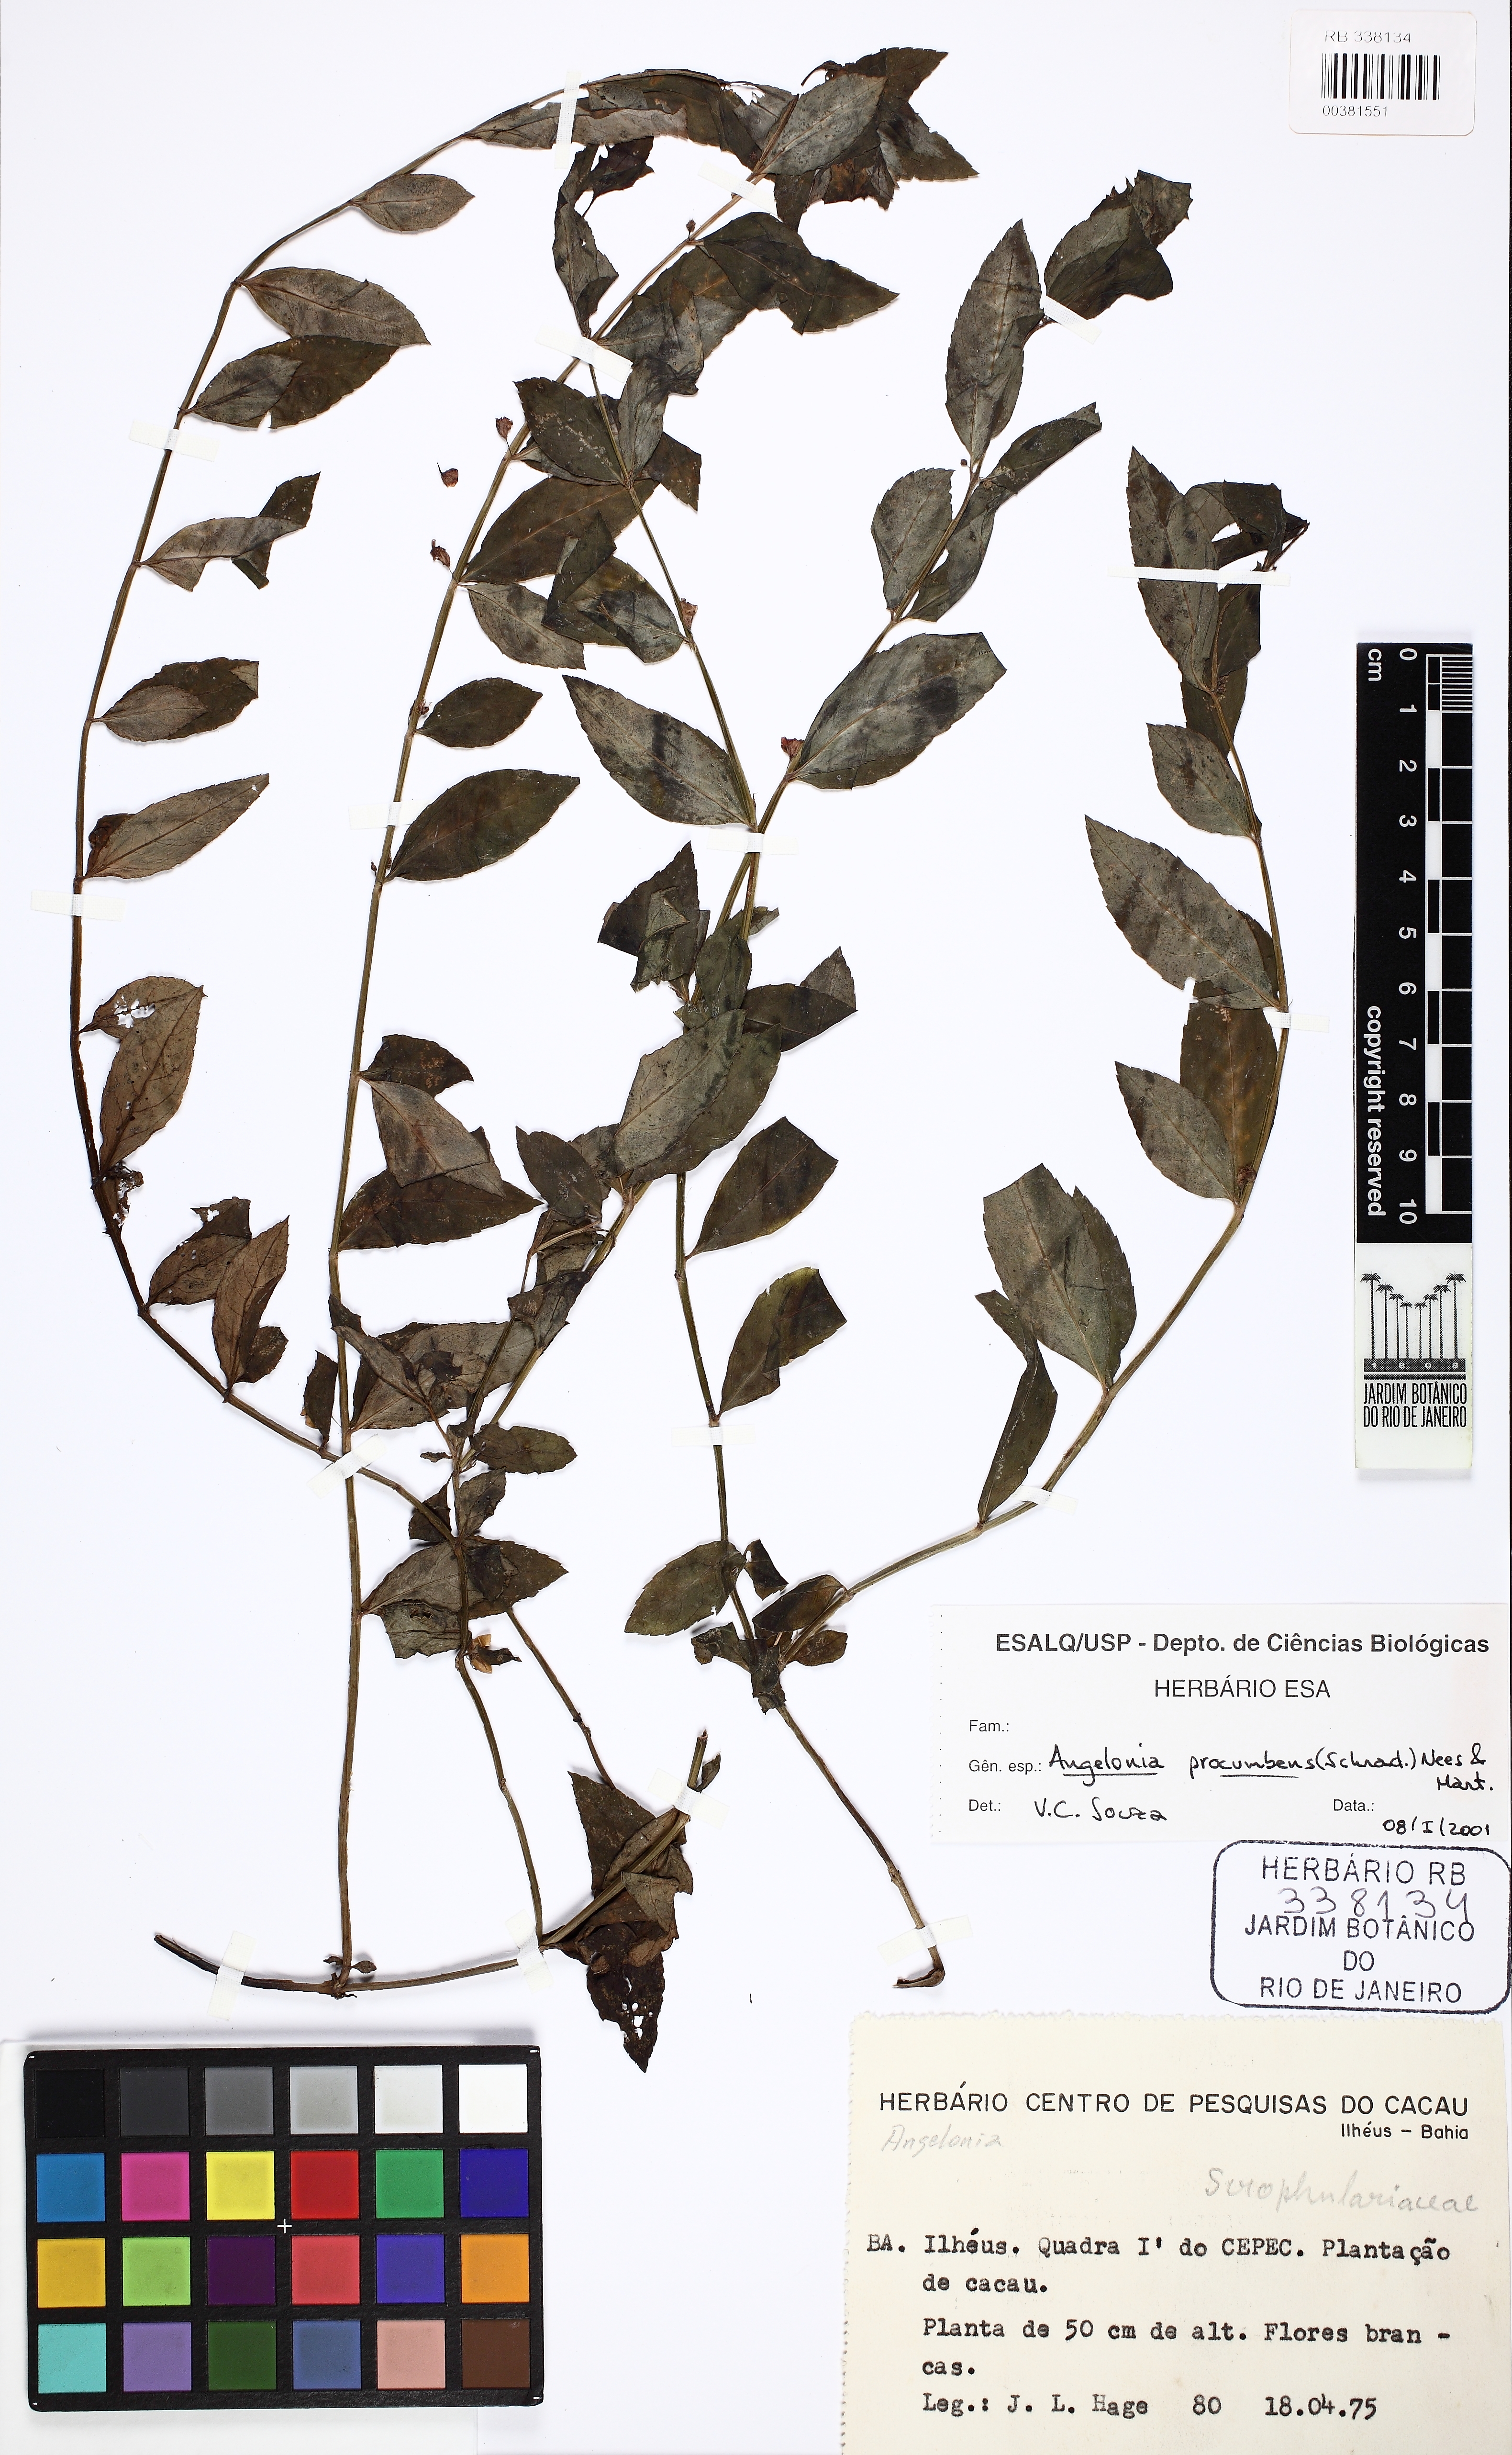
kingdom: Plantae
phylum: Tracheophyta
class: Magnoliopsida
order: Lamiales
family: Plantaginaceae
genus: Angelonia
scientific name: Angelonia procumbens
